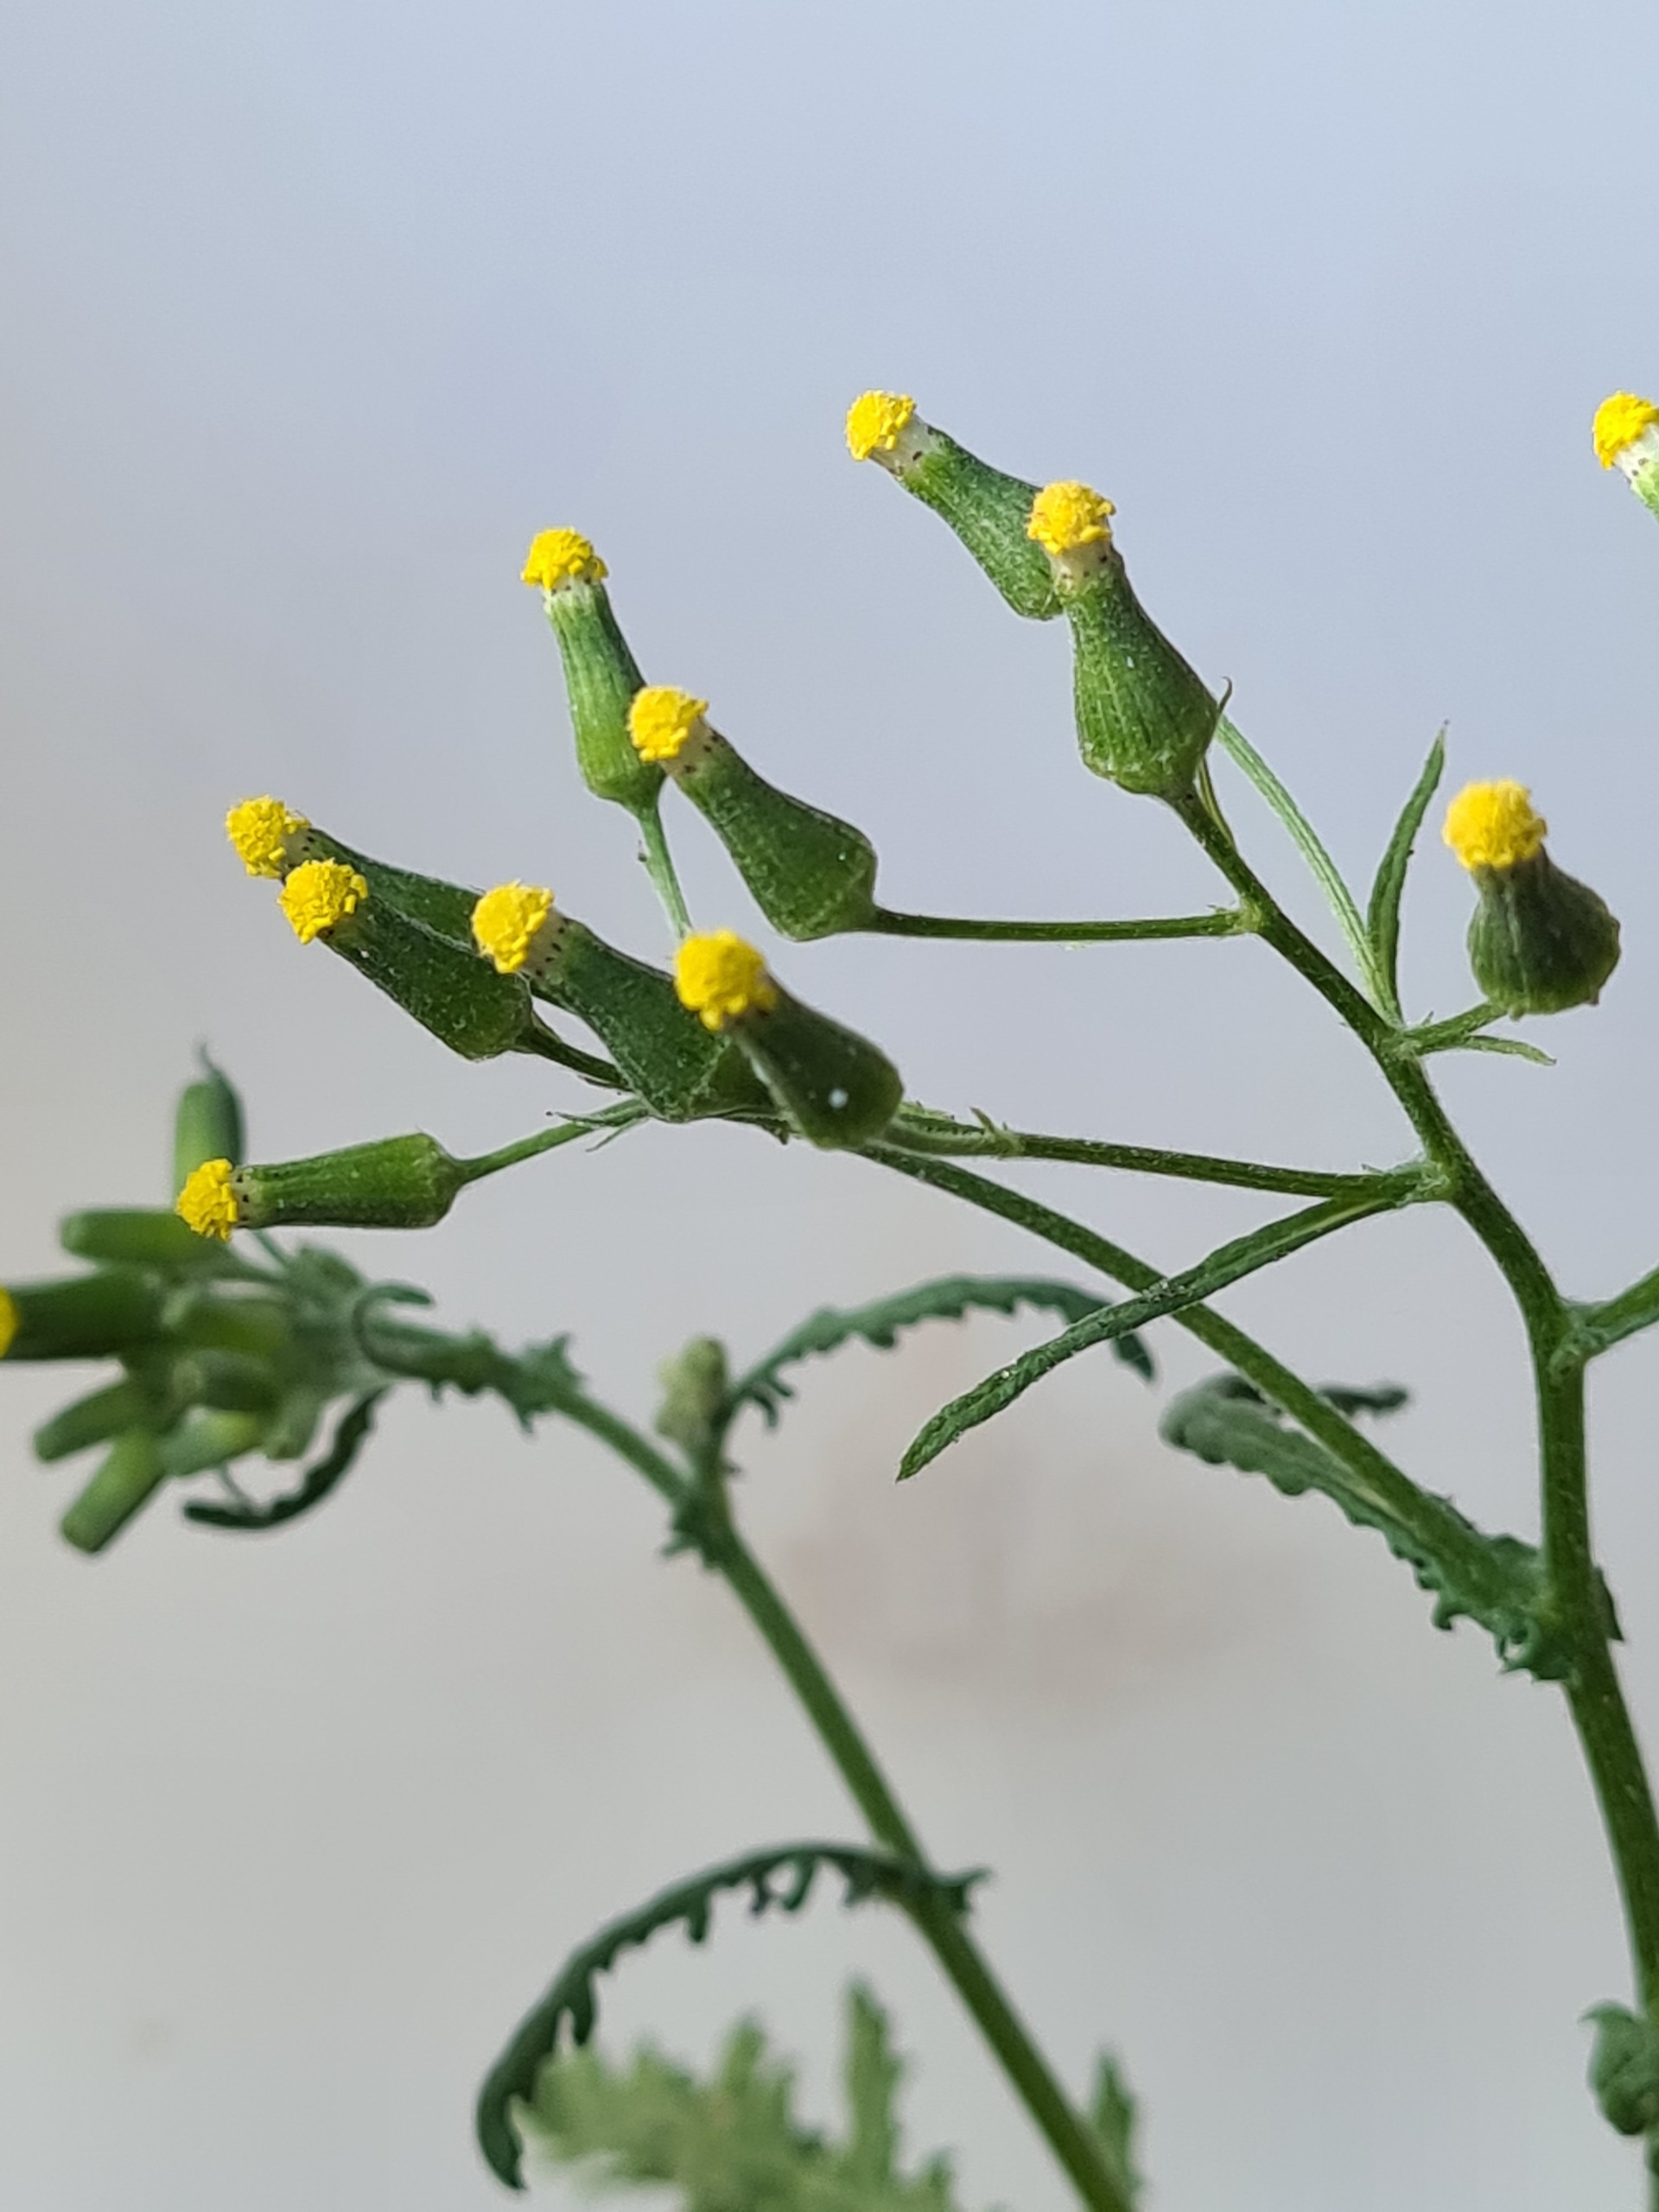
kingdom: Plantae
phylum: Tracheophyta
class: Magnoliopsida
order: Asterales
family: Asteraceae
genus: Senecio
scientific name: Senecio sylvaticus
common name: Skov-brandbæger
